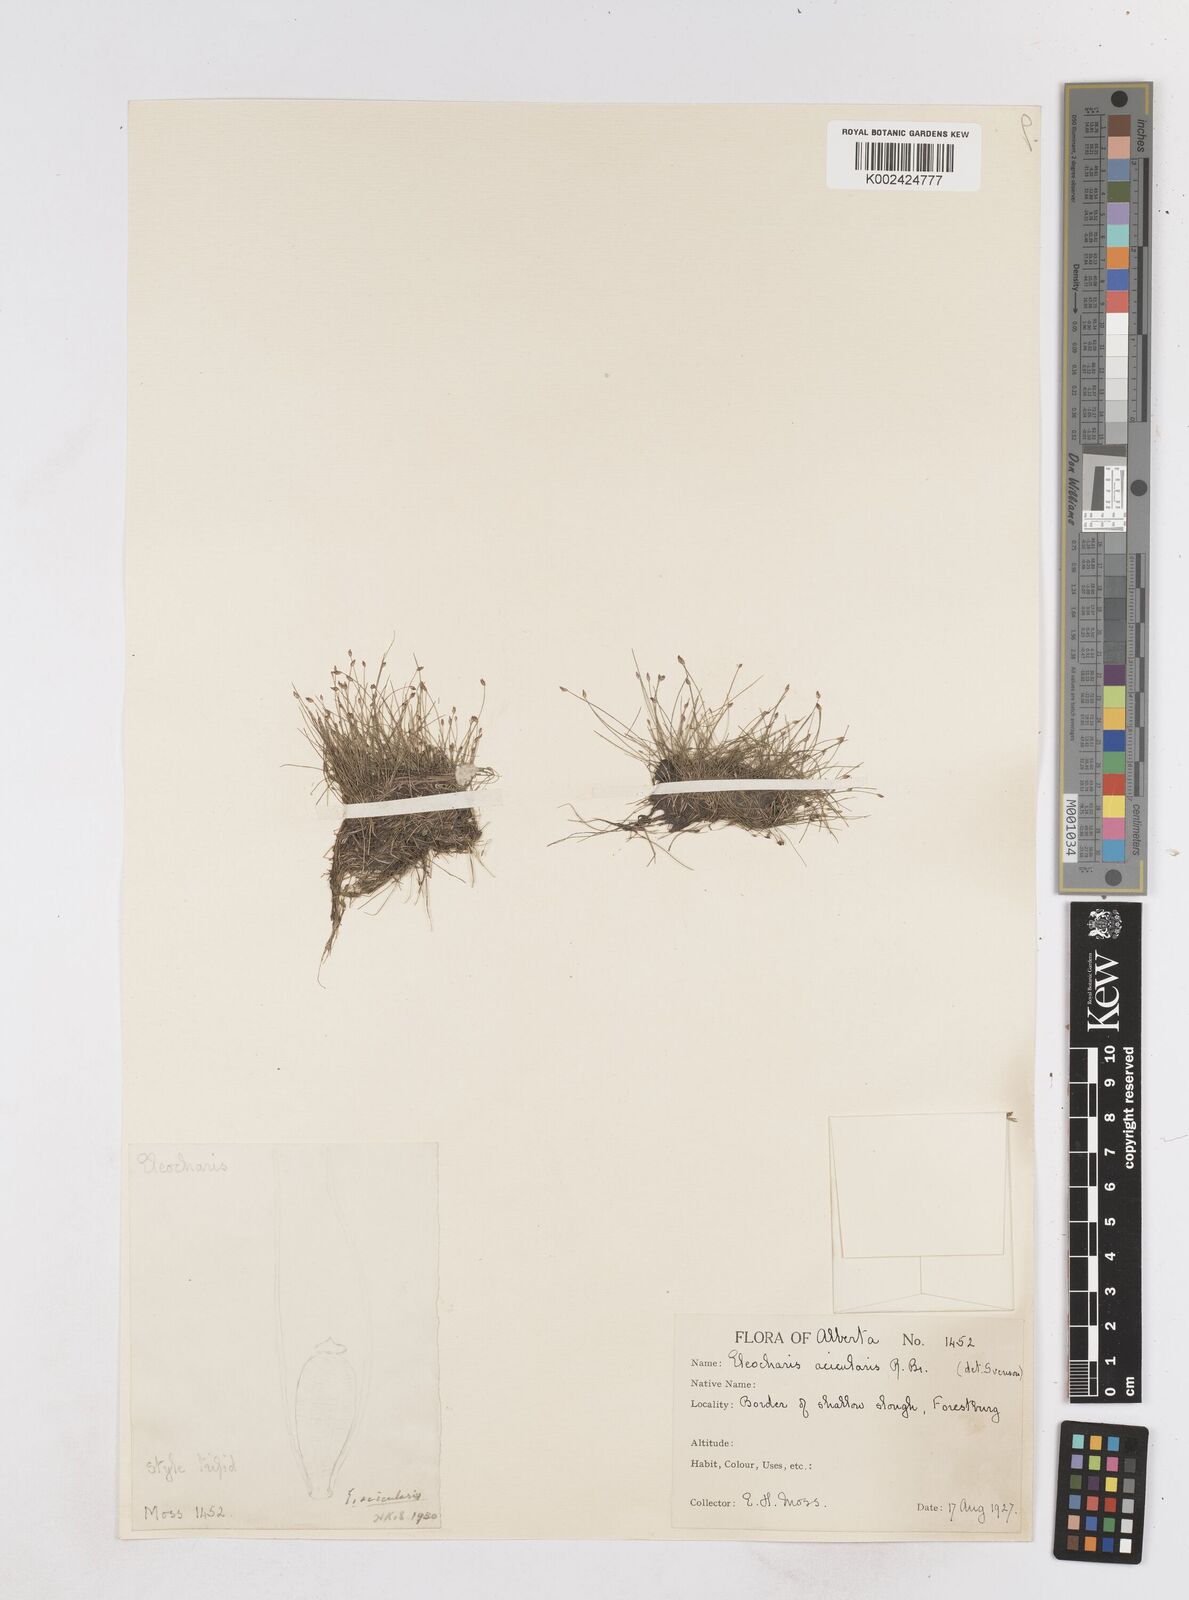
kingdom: Plantae
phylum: Tracheophyta
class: Liliopsida
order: Poales
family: Cyperaceae
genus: Eleocharis
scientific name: Eleocharis acicularis
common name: Needle spike-rush
